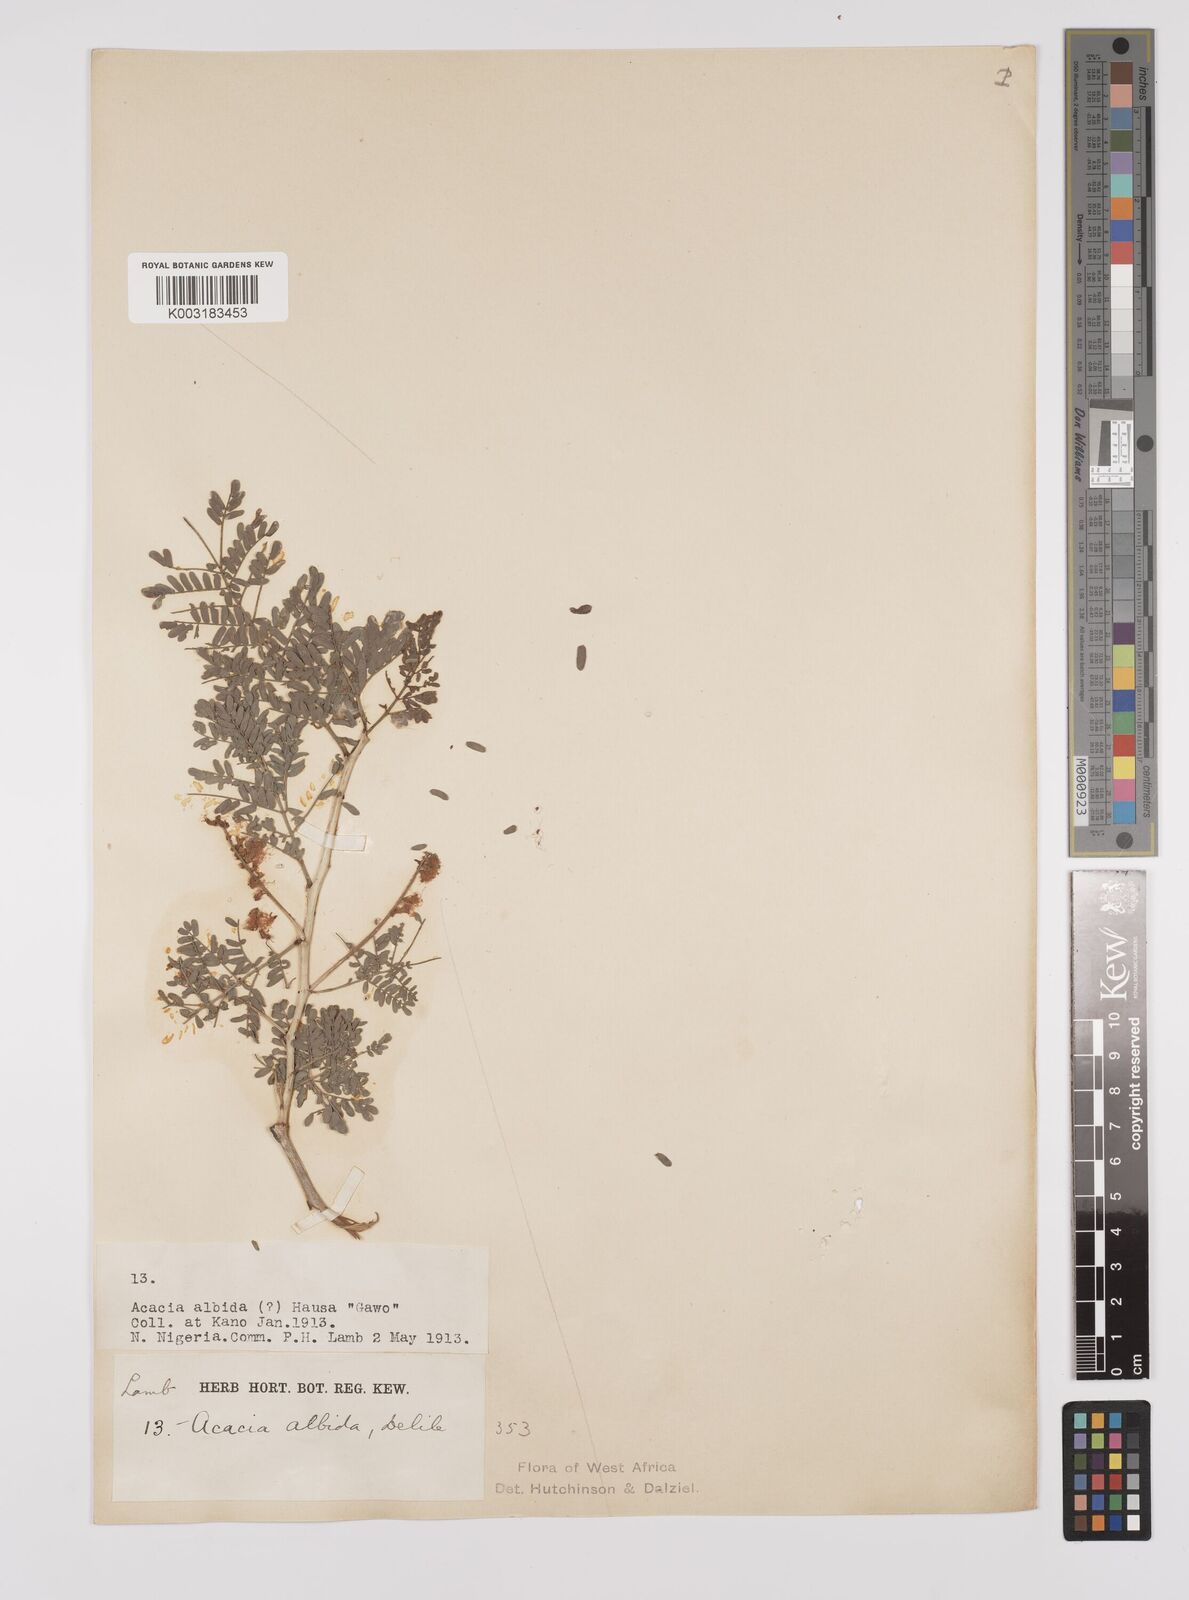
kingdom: Plantae
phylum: Tracheophyta
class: Magnoliopsida
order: Fabales
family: Fabaceae
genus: Faidherbia
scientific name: Faidherbia albida
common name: Anatree
